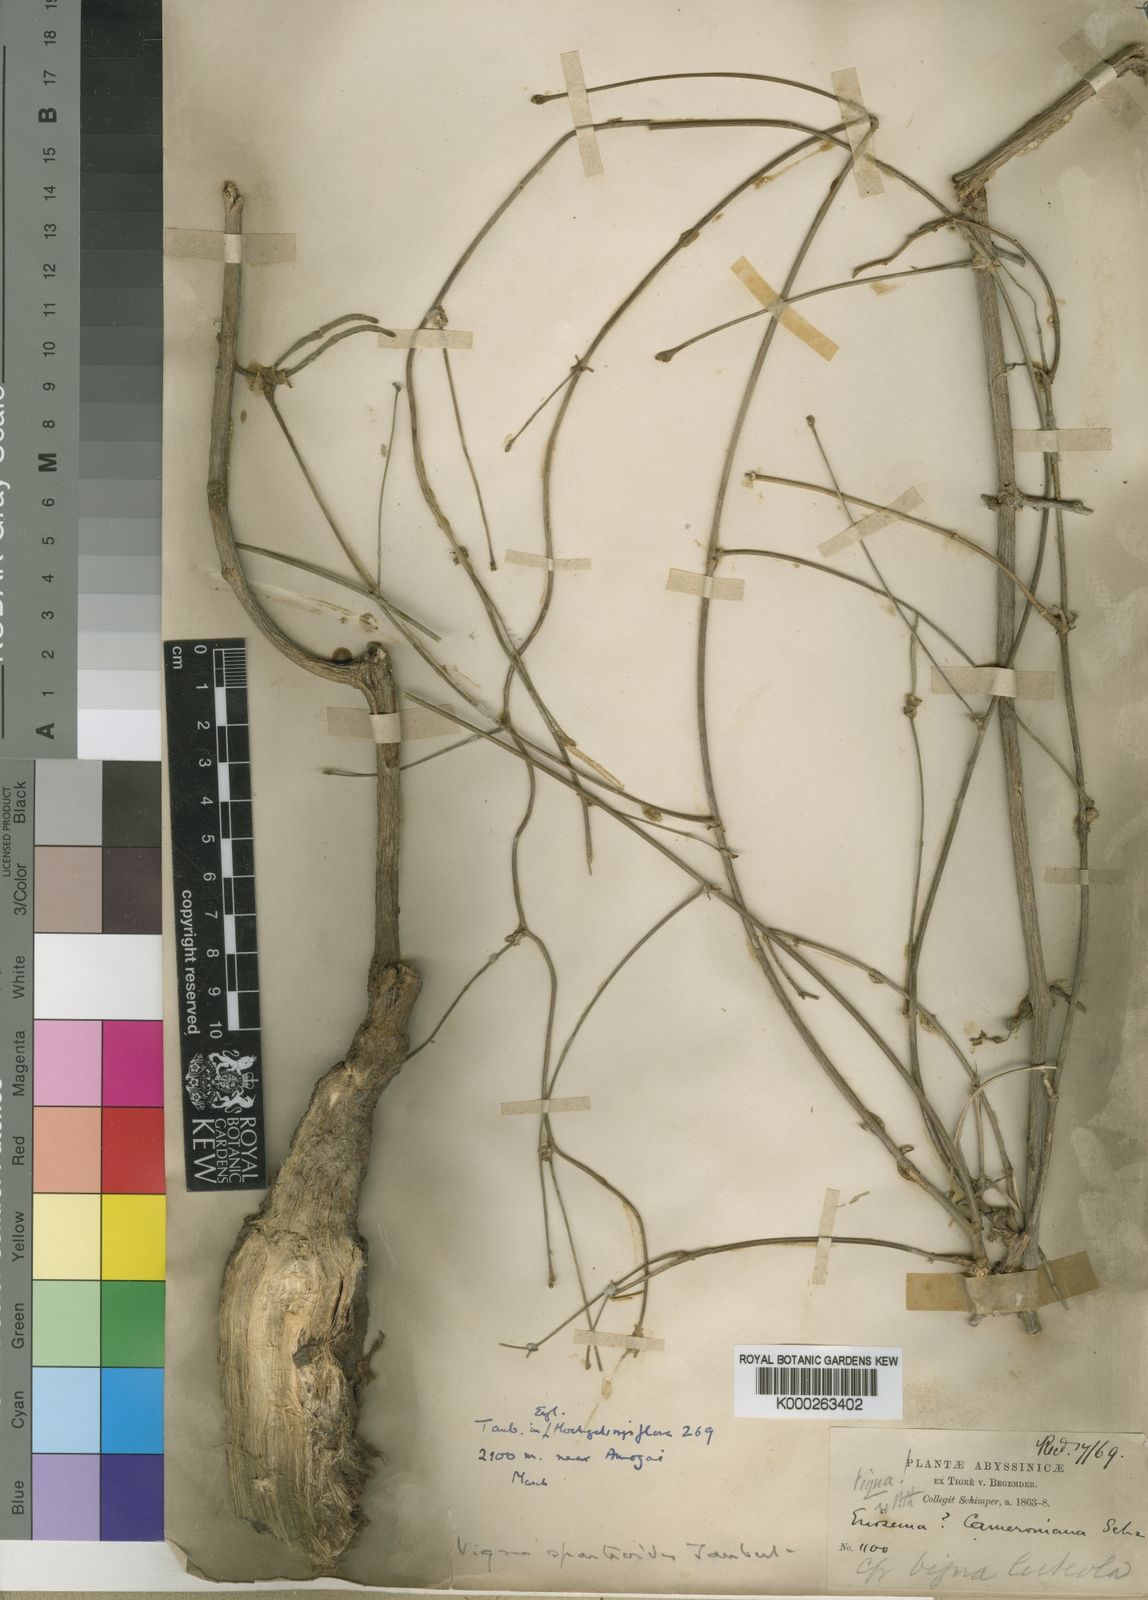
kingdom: Plantae
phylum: Tracheophyta
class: Magnoliopsida
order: Fabales
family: Fabaceae
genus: Vigna
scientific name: Vigna debanensis
